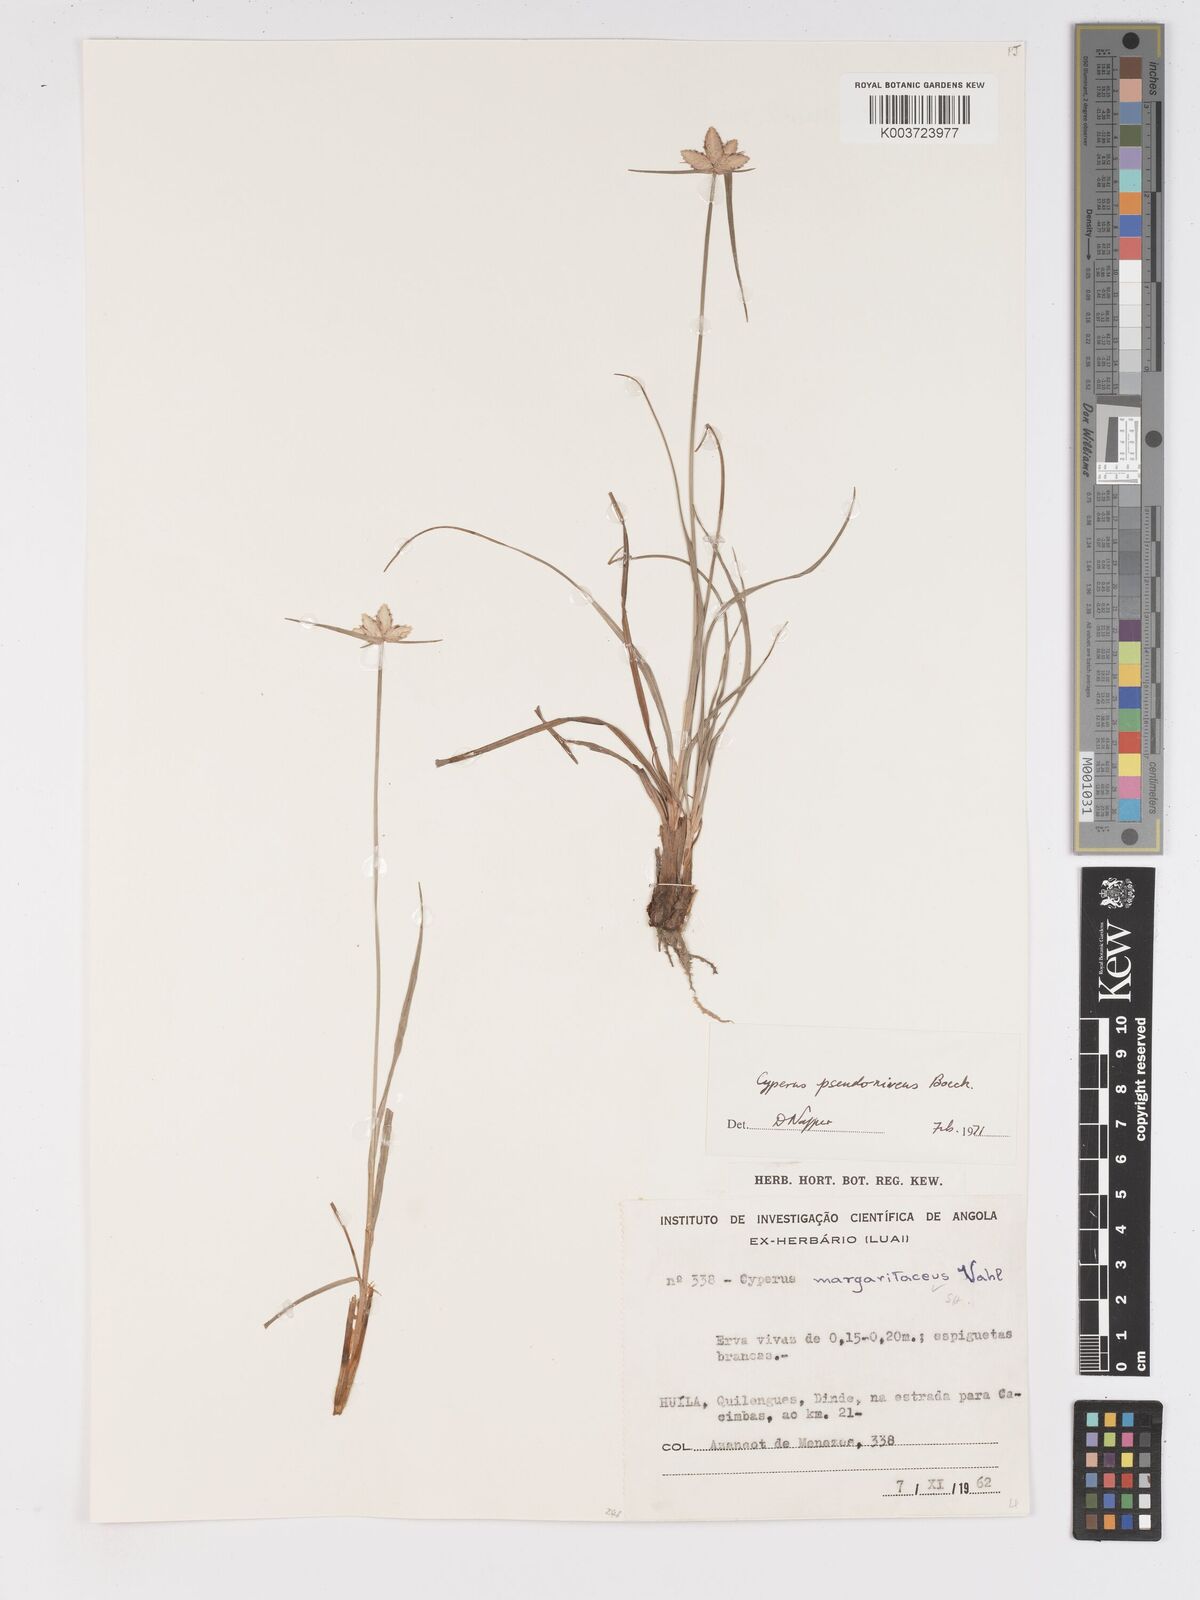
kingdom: Plantae
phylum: Tracheophyta
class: Liliopsida
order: Poales
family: Cyperaceae
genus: Cyperus
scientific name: Cyperus margaritaceus
